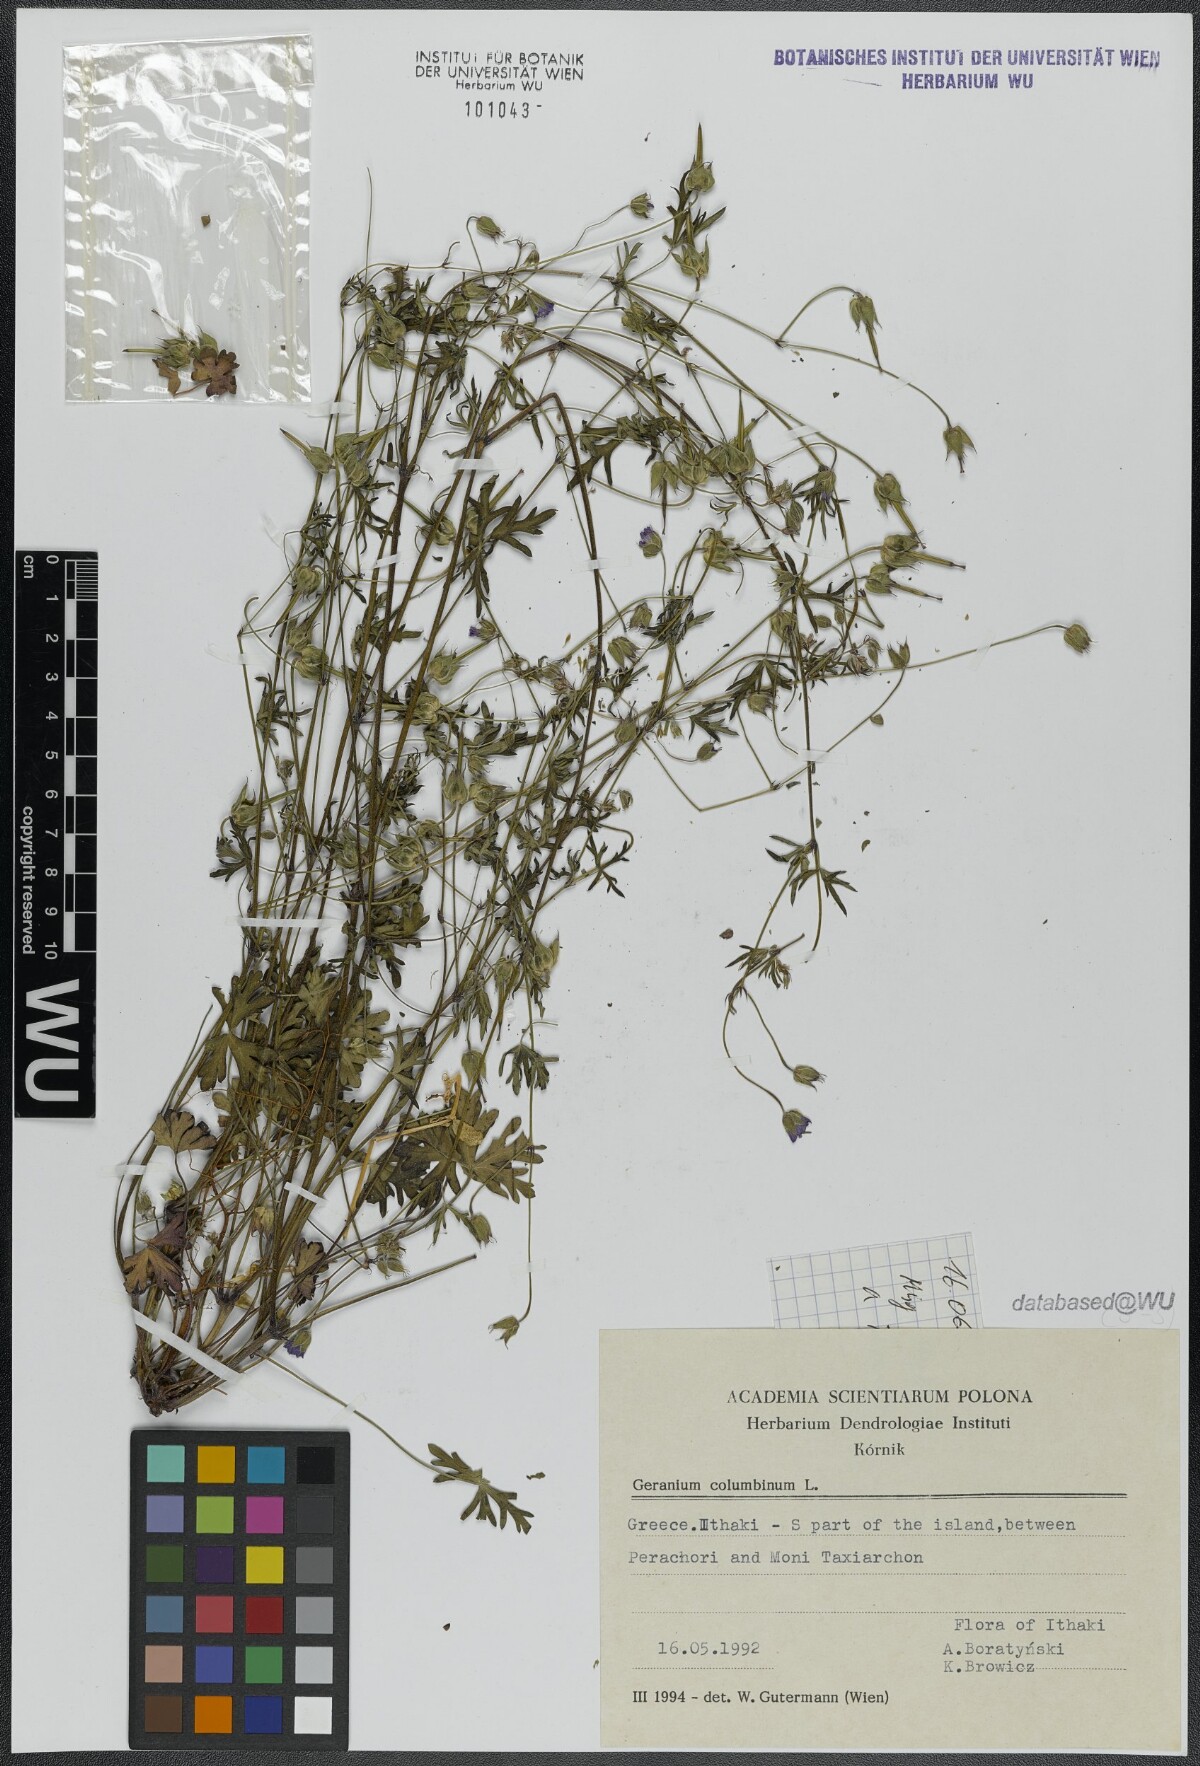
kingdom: Plantae
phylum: Tracheophyta
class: Magnoliopsida
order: Geraniales
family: Geraniaceae
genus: Geranium
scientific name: Geranium columbinum
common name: Long-stalked crane's-bill
